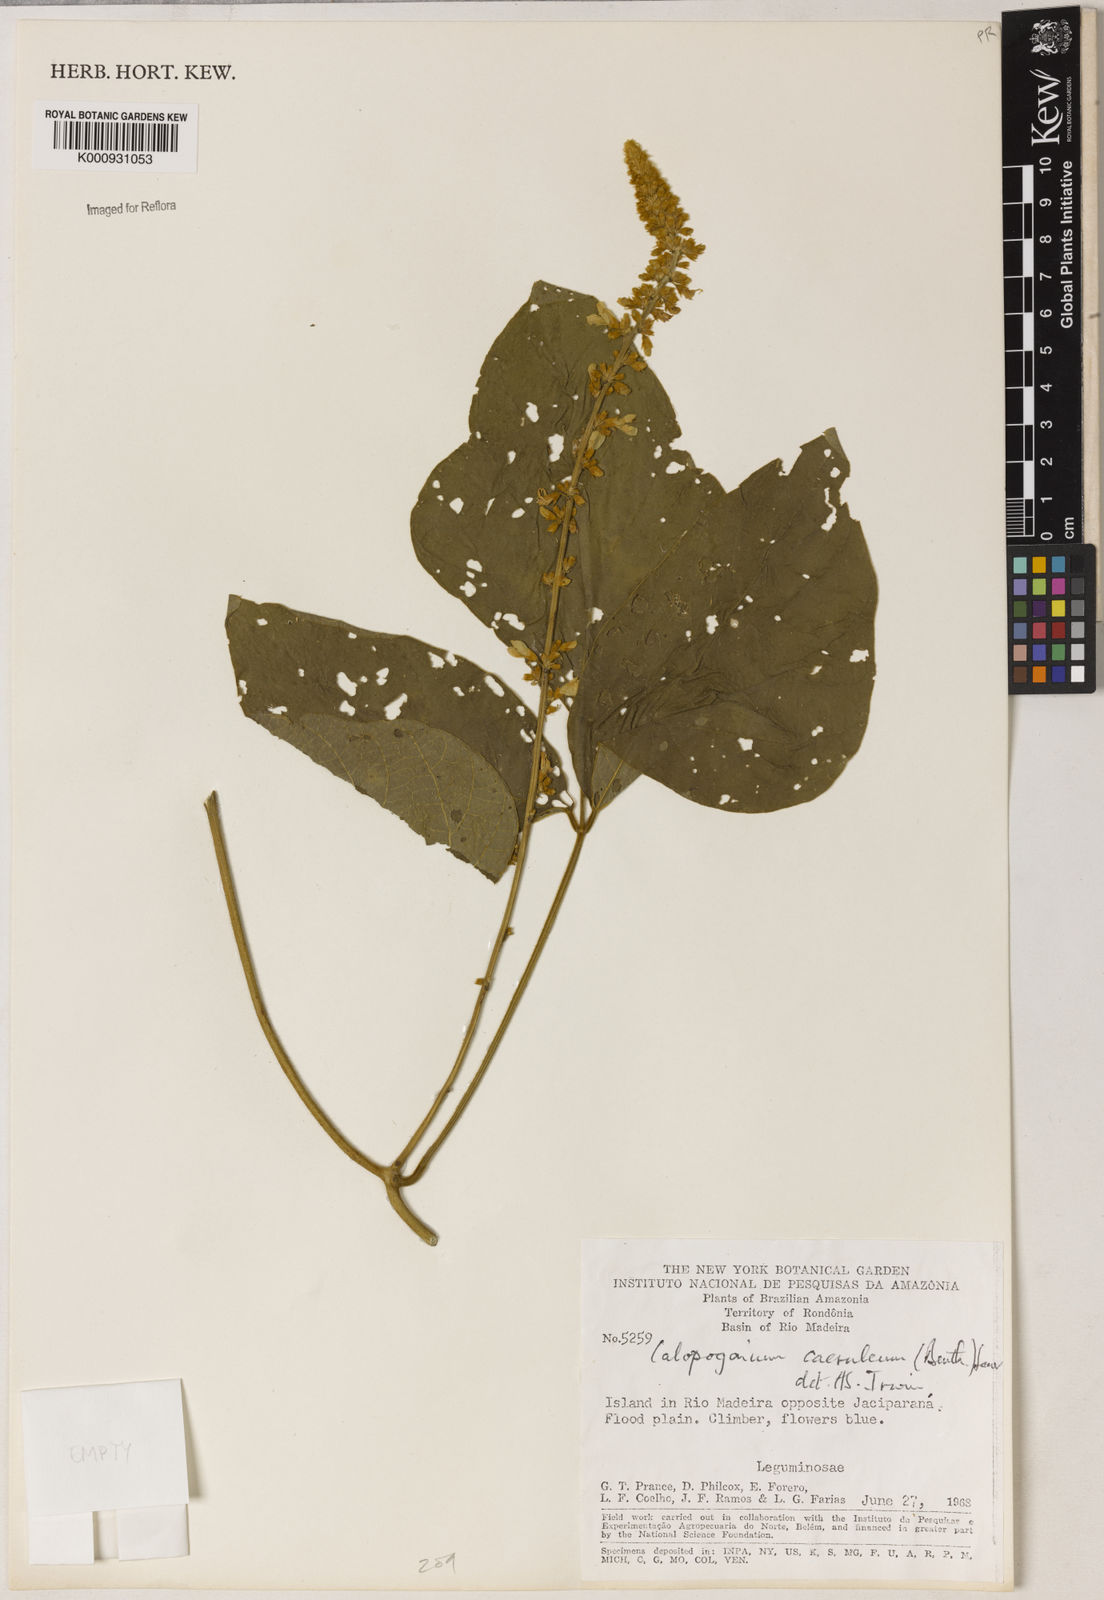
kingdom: Plantae
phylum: Tracheophyta
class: Magnoliopsida
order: Fabales
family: Fabaceae
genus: Calopogonium
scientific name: Calopogonium caeruleum
